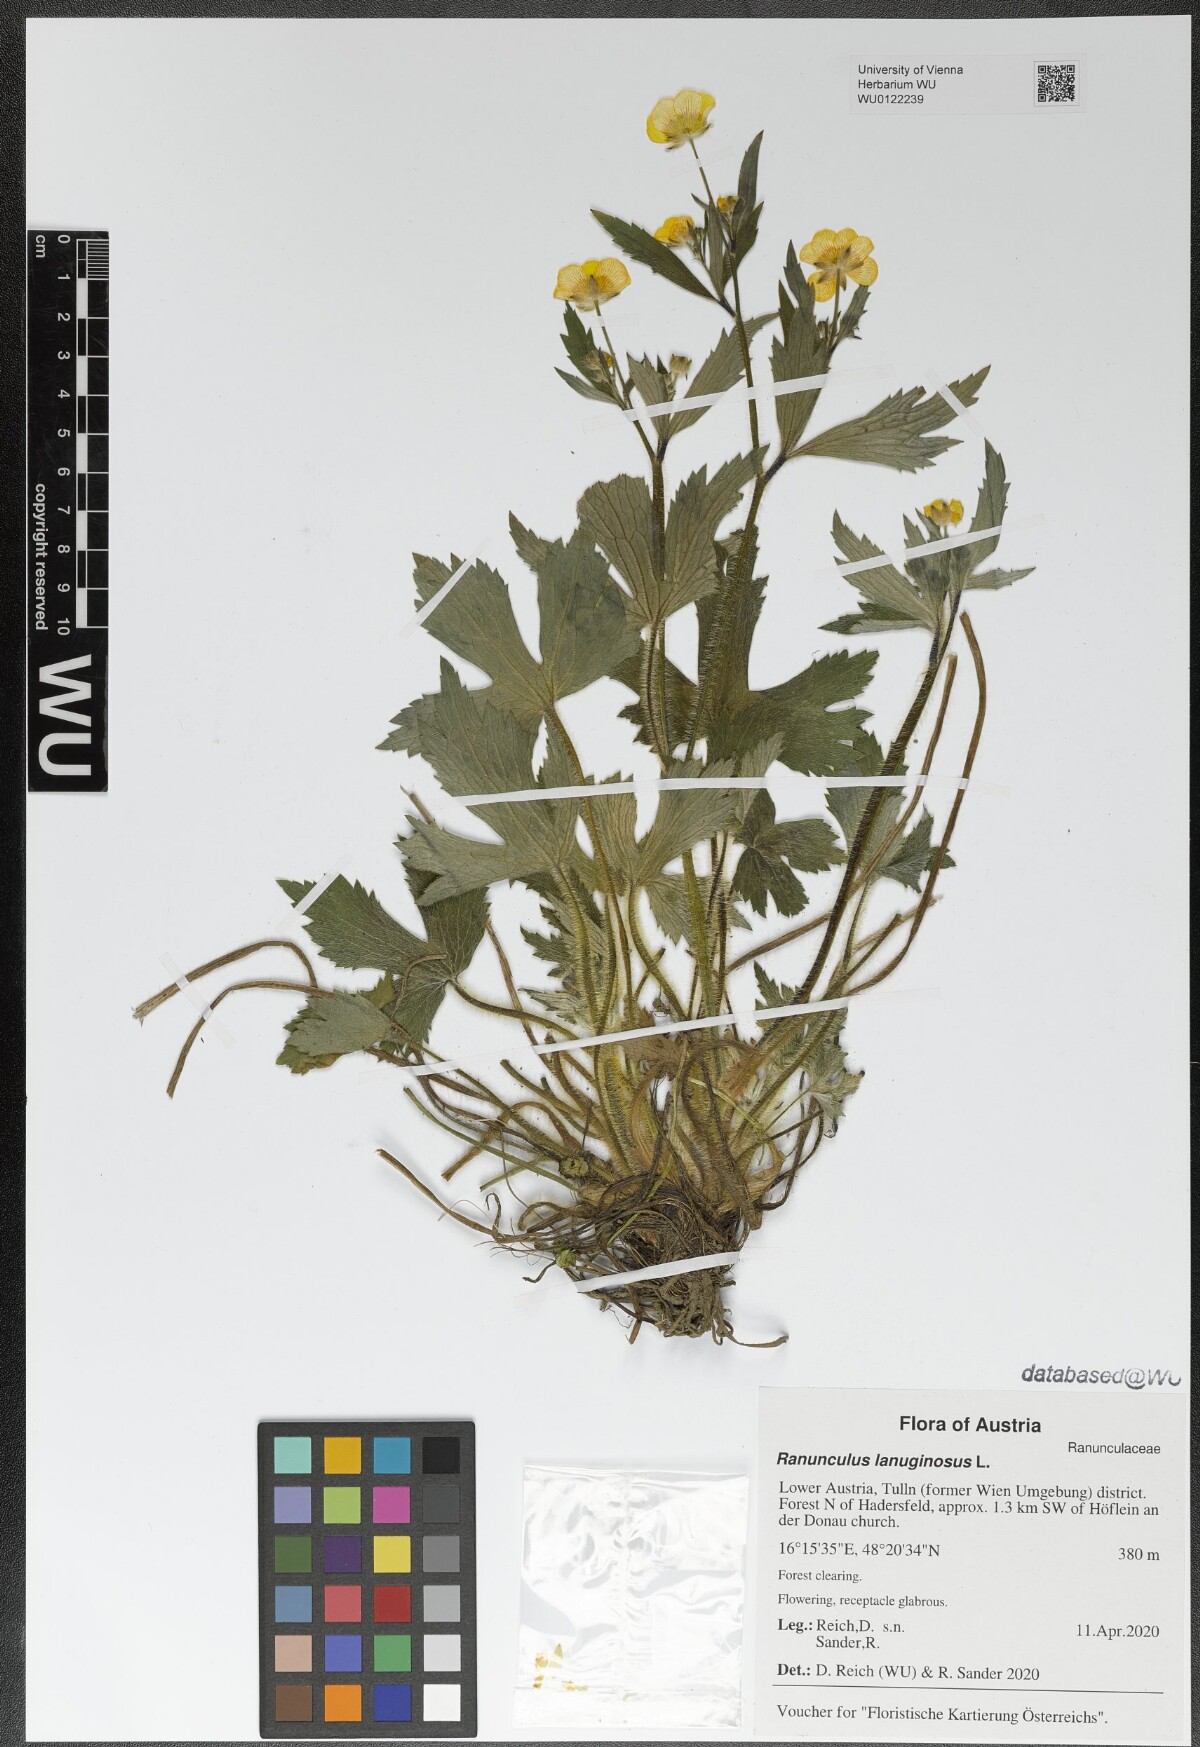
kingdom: Plantae
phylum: Tracheophyta
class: Magnoliopsida
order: Ranunculales
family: Ranunculaceae
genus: Ranunculus
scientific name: Ranunculus lanuginosus
